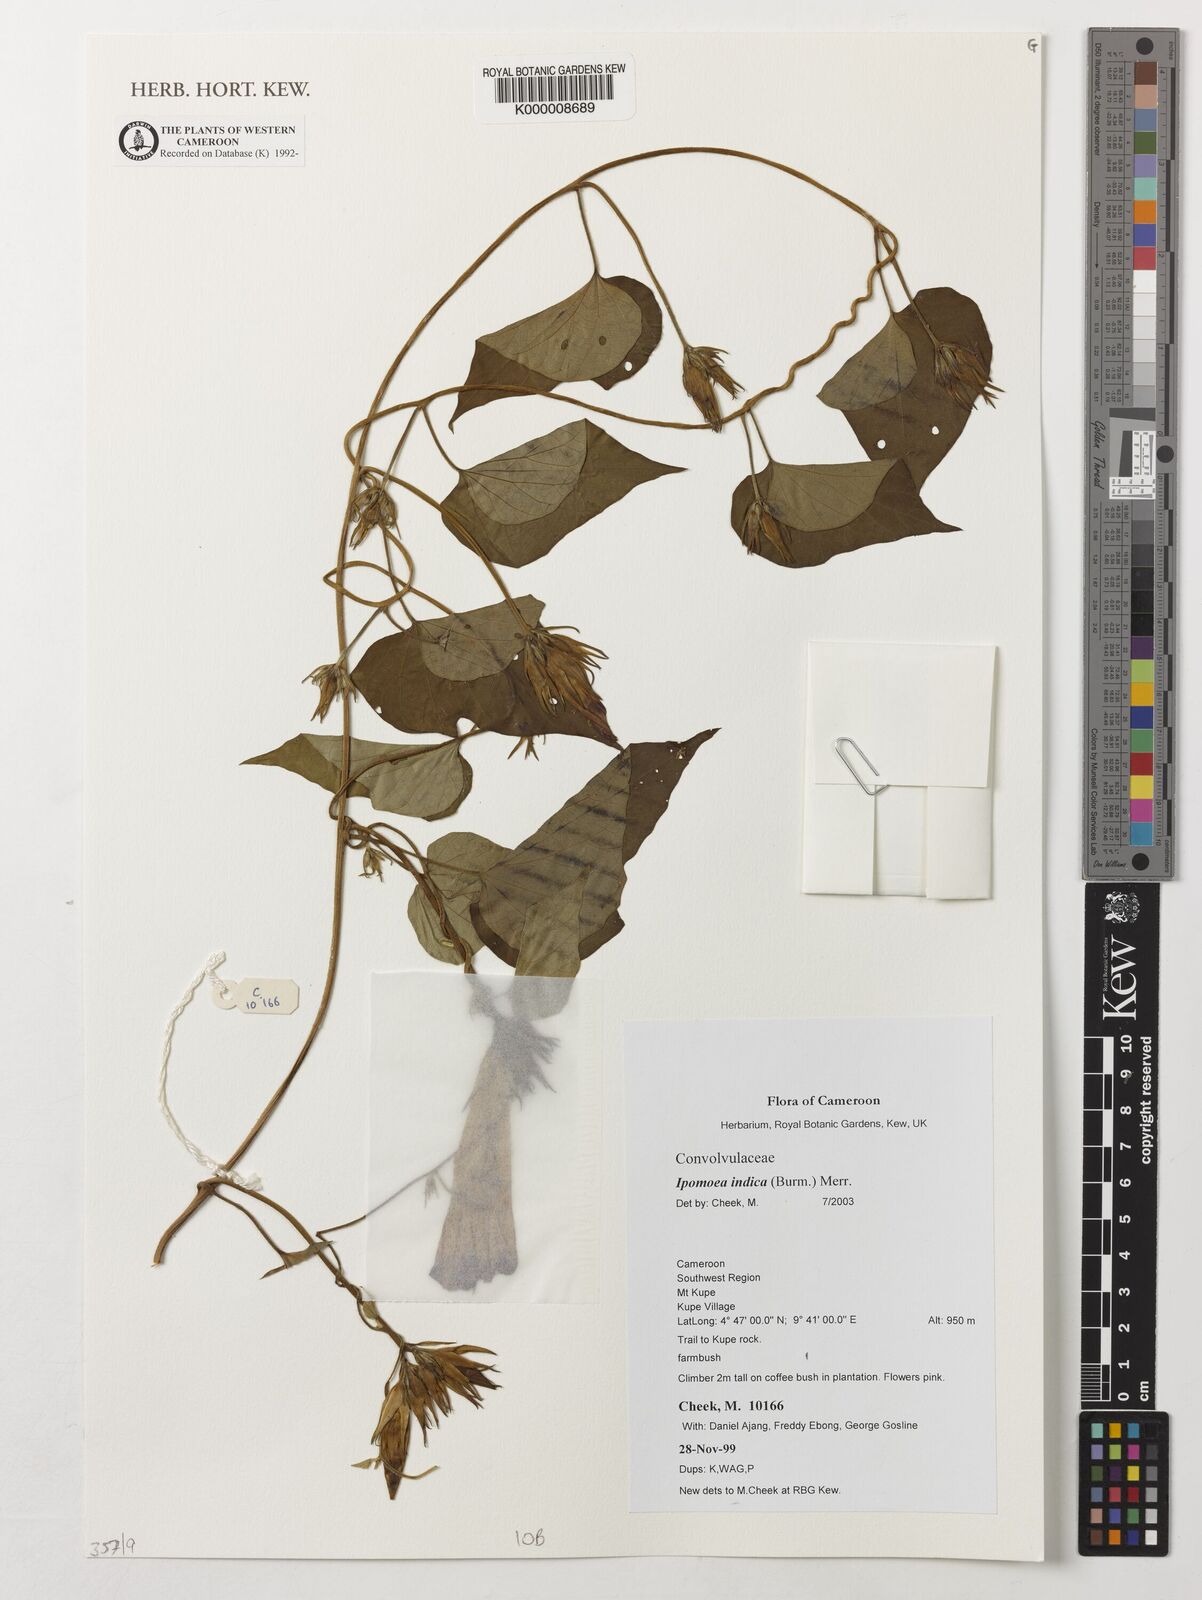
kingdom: Plantae
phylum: Tracheophyta
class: Magnoliopsida
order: Solanales
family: Convolvulaceae
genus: Ipomoea
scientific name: Ipomoea indica
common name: Blue dawnflower
